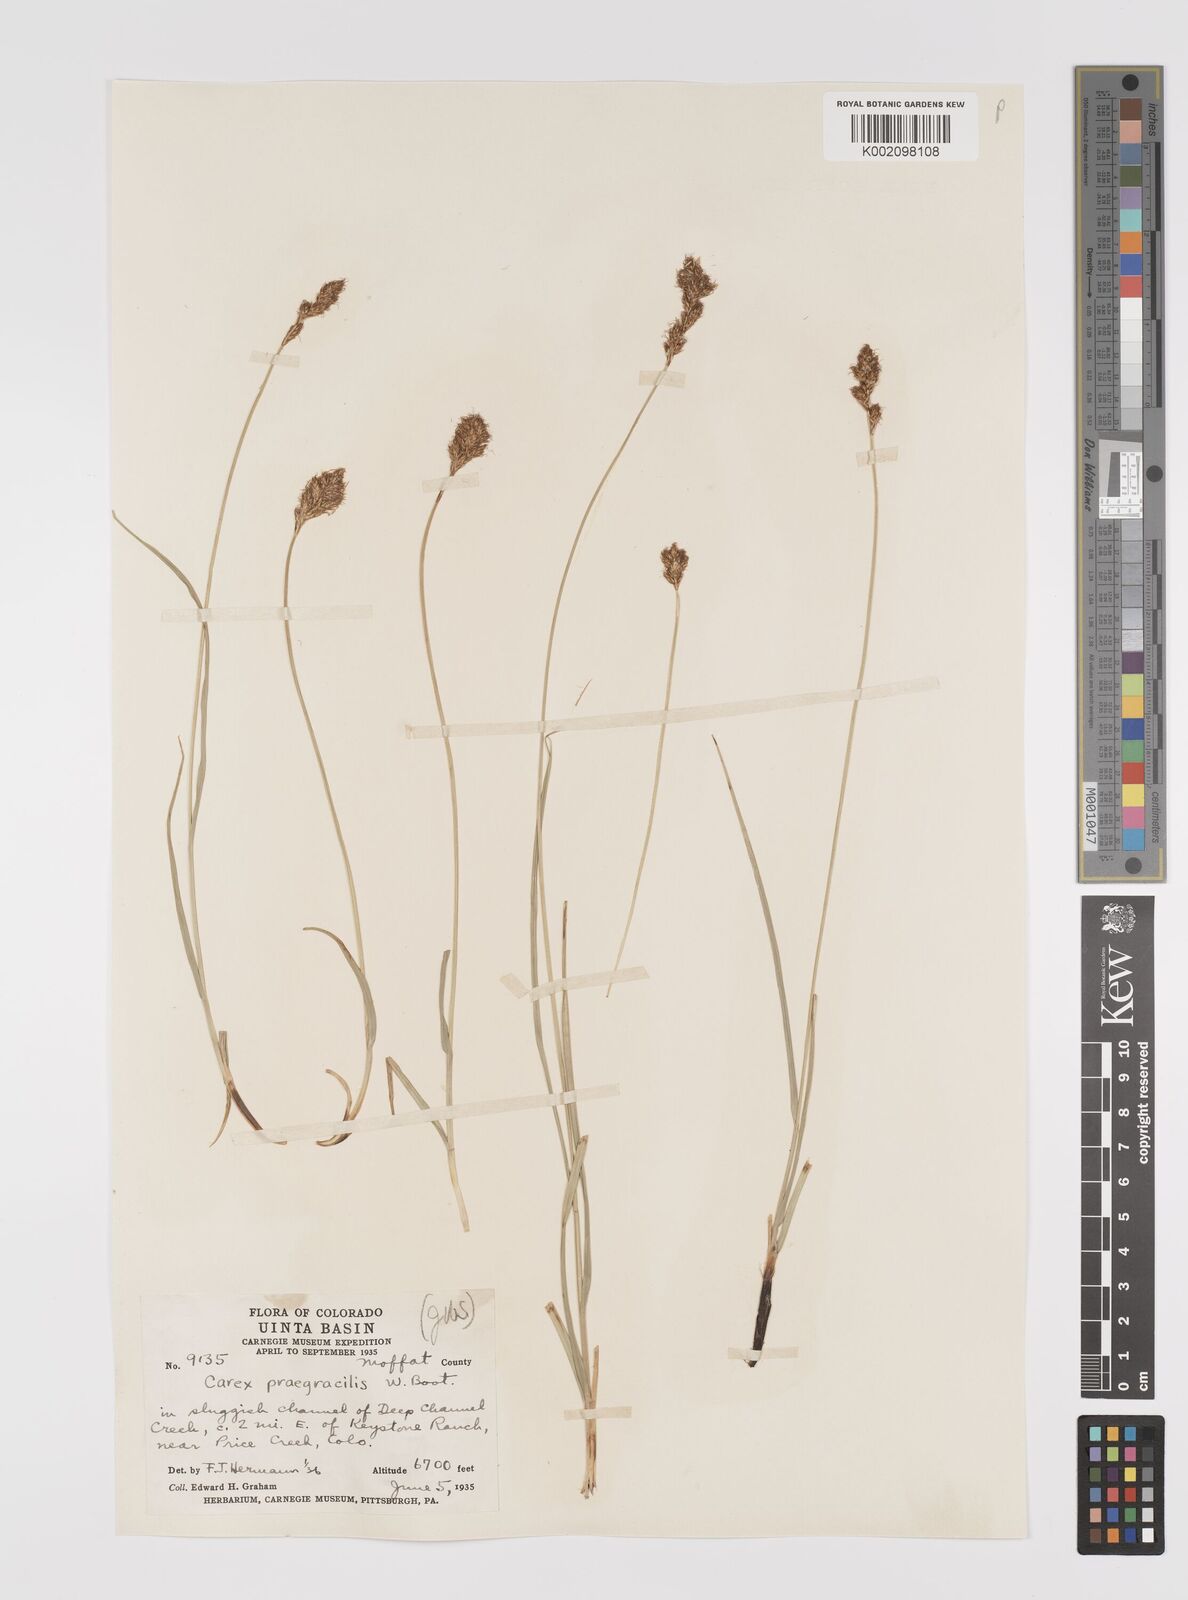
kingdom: Plantae
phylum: Tracheophyta
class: Liliopsida
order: Poales
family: Cyperaceae
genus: Carex
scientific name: Carex praegracilis
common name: Black creeper sedge
